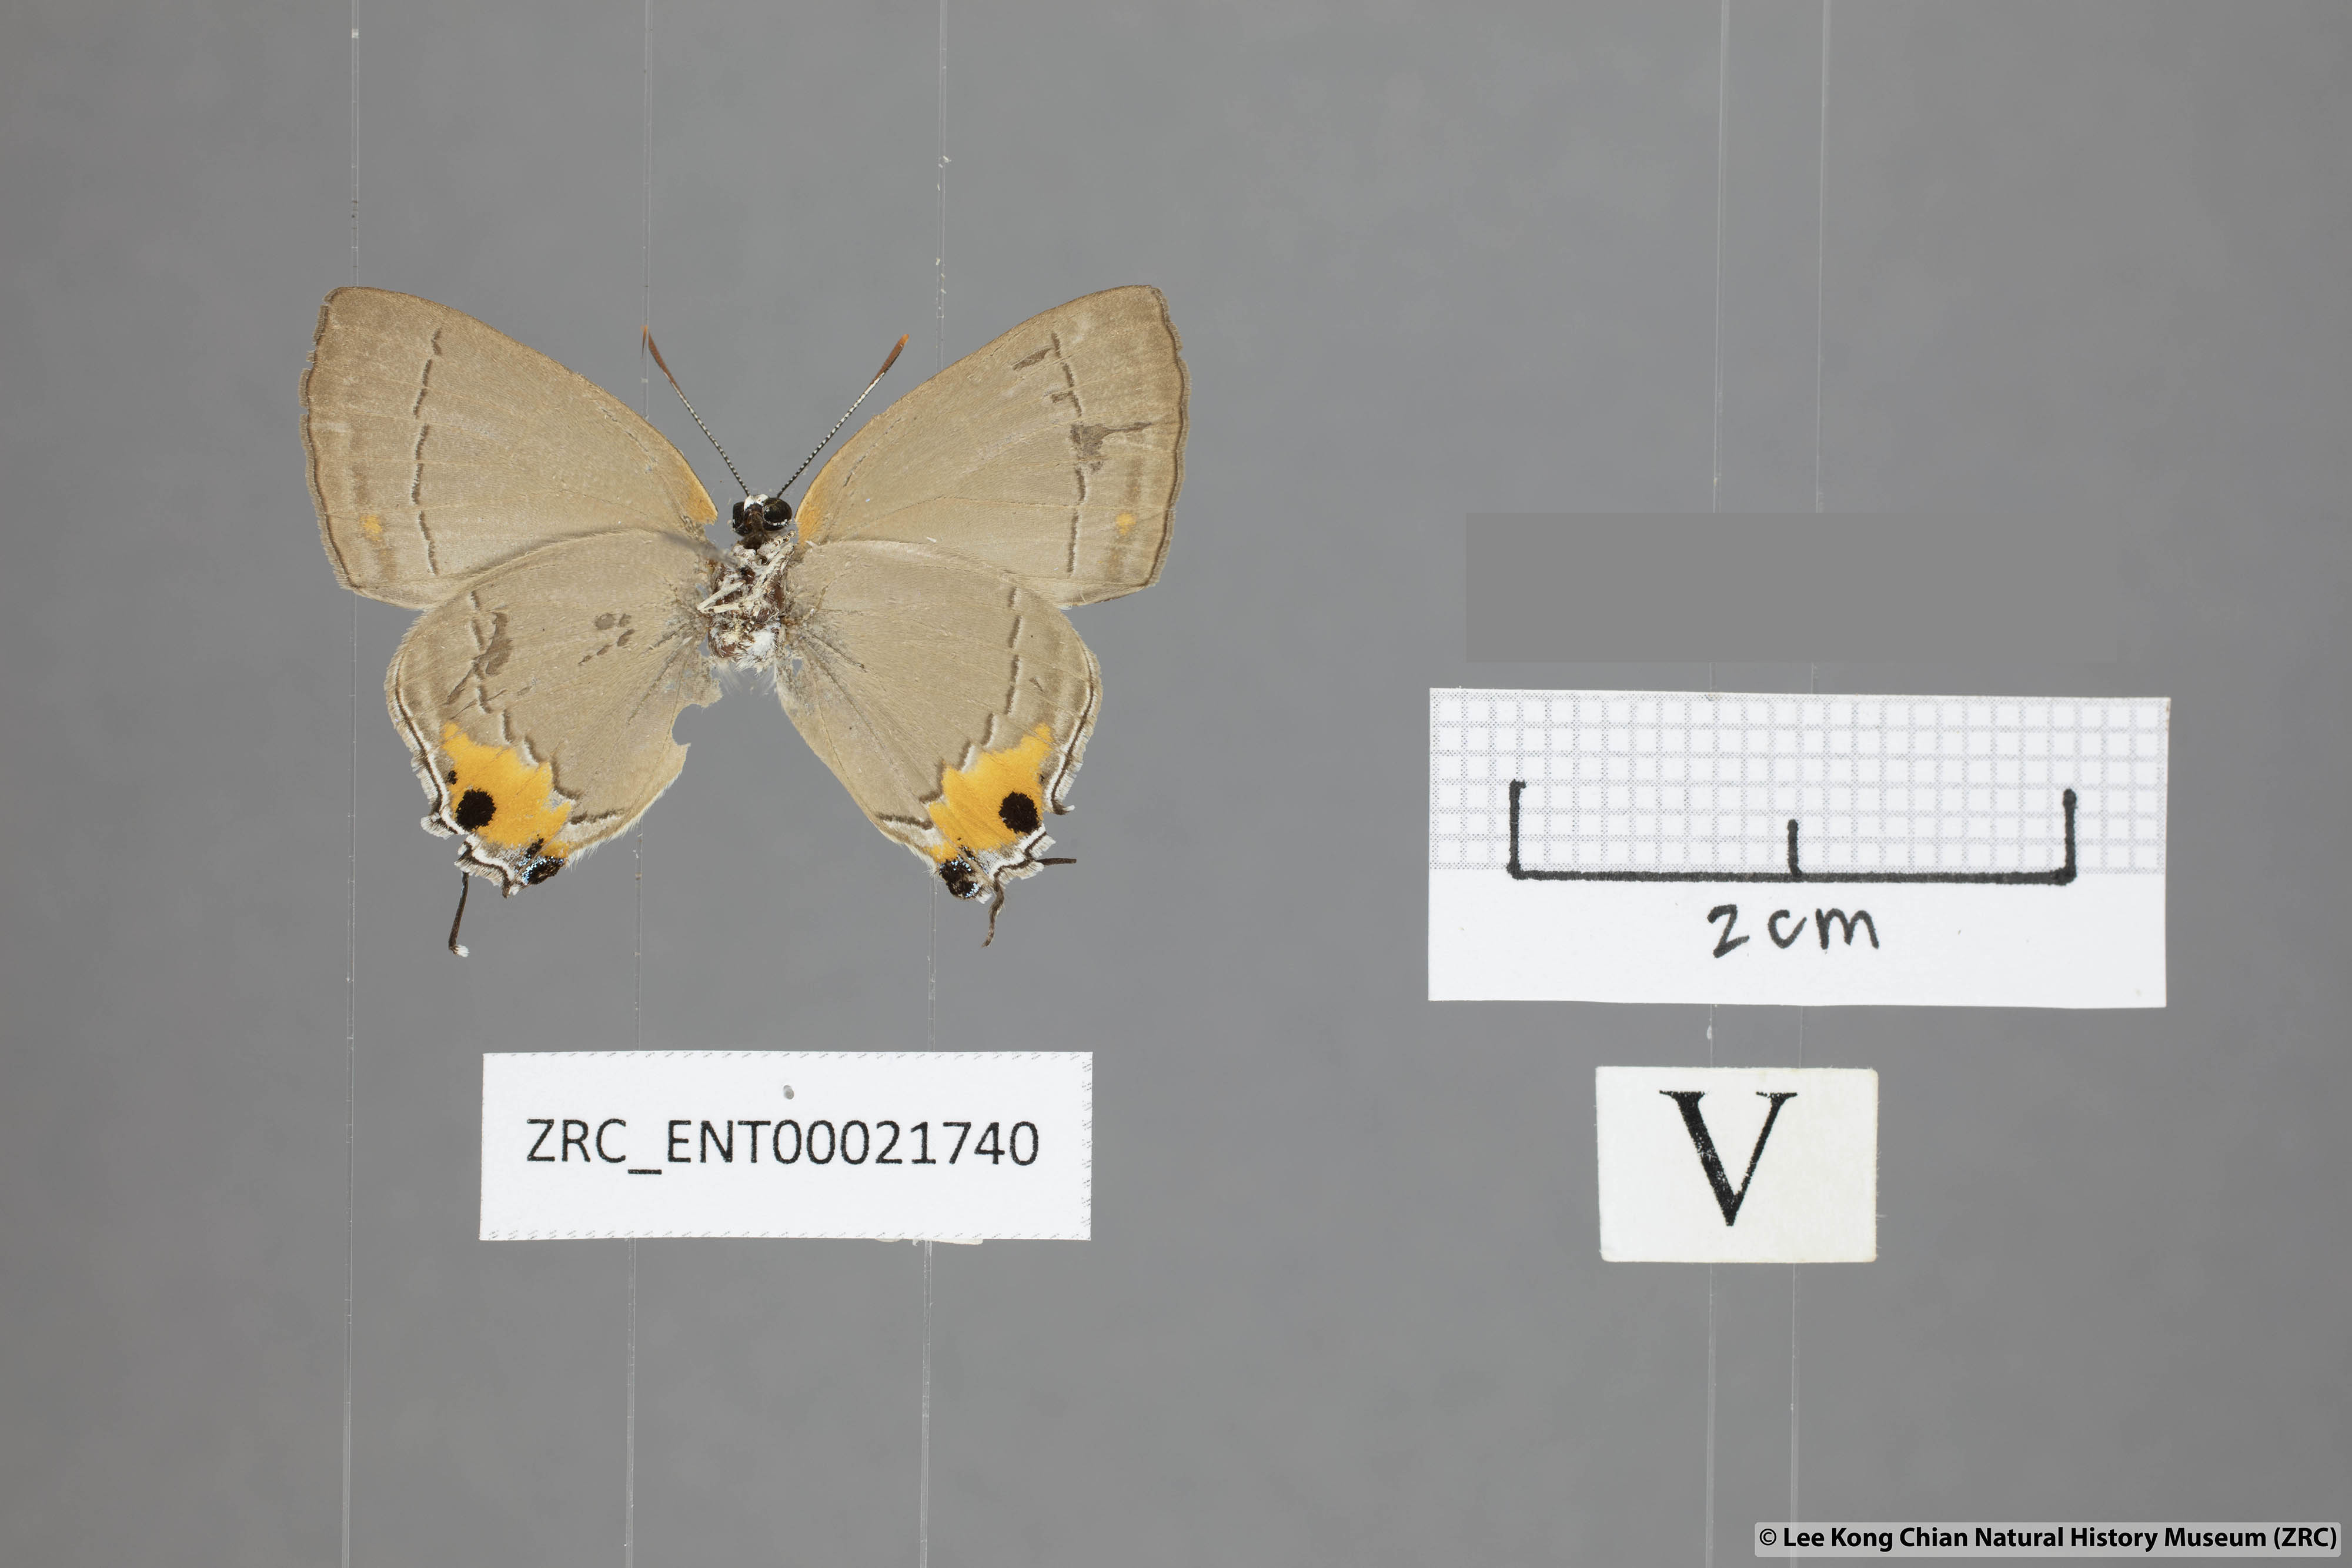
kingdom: Animalia
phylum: Arthropoda
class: Insecta
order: Lepidoptera
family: Lycaenidae
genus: Pratapa
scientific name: Pratapa icetas
